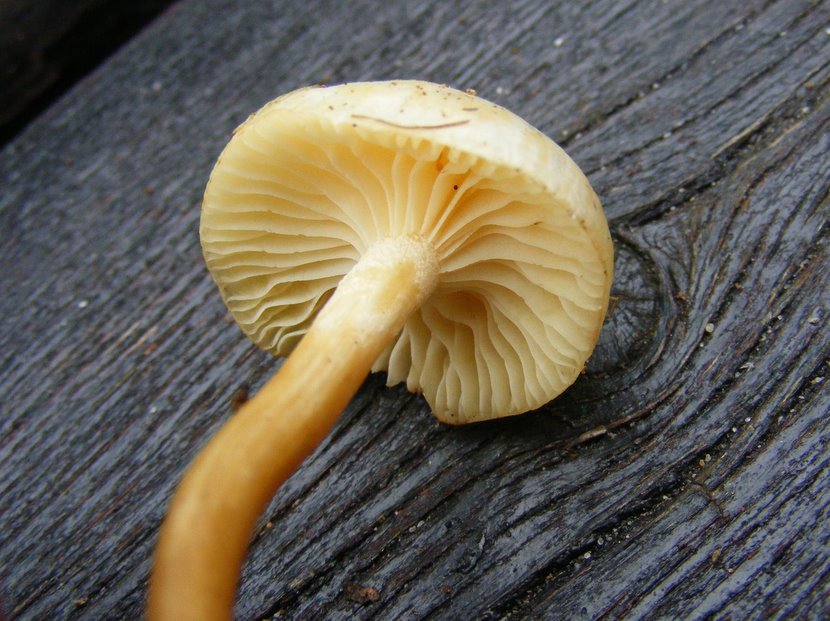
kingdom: Fungi
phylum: Basidiomycota
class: Agaricomycetes
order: Agaricales
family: Hygrophoraceae
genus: Hygrophorus
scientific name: Hygrophorus discoxanthus
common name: ildelugtende sneglehat
